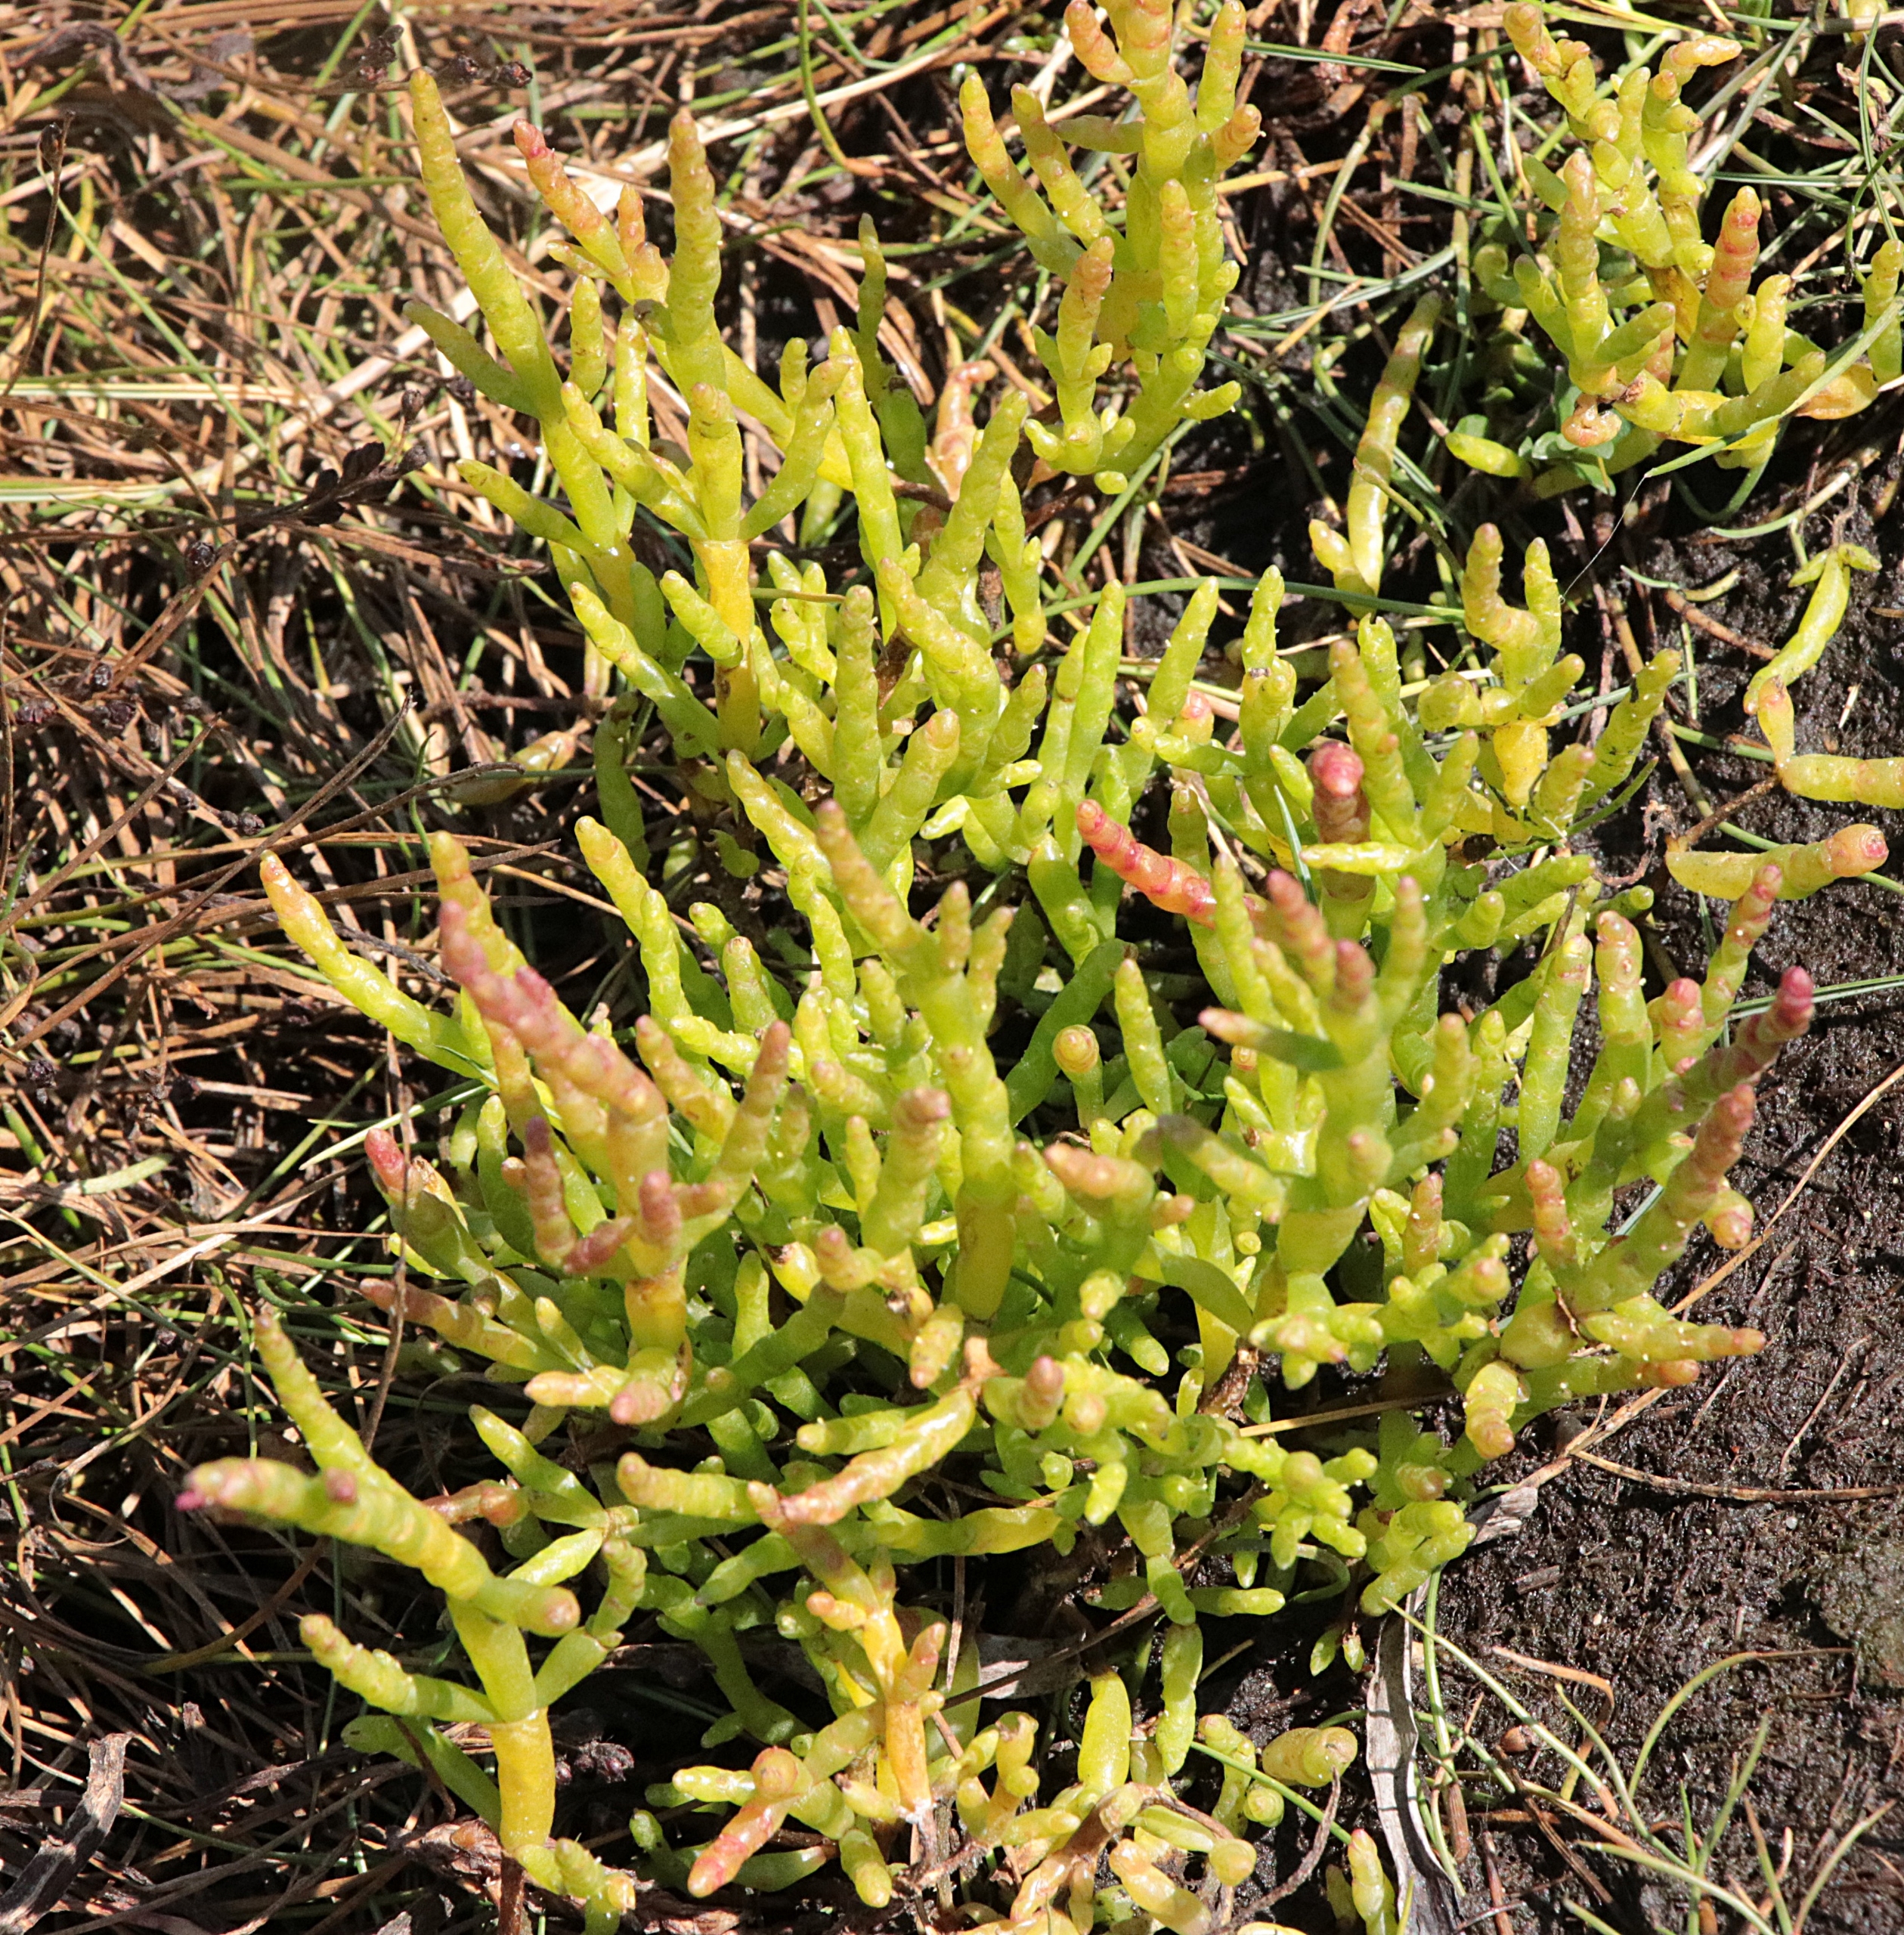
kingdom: Plantae
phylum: Tracheophyta
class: Magnoliopsida
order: Caryophyllales
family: Amaranthaceae
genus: Salicornia
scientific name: Salicornia europaea
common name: Almindelig salturt
